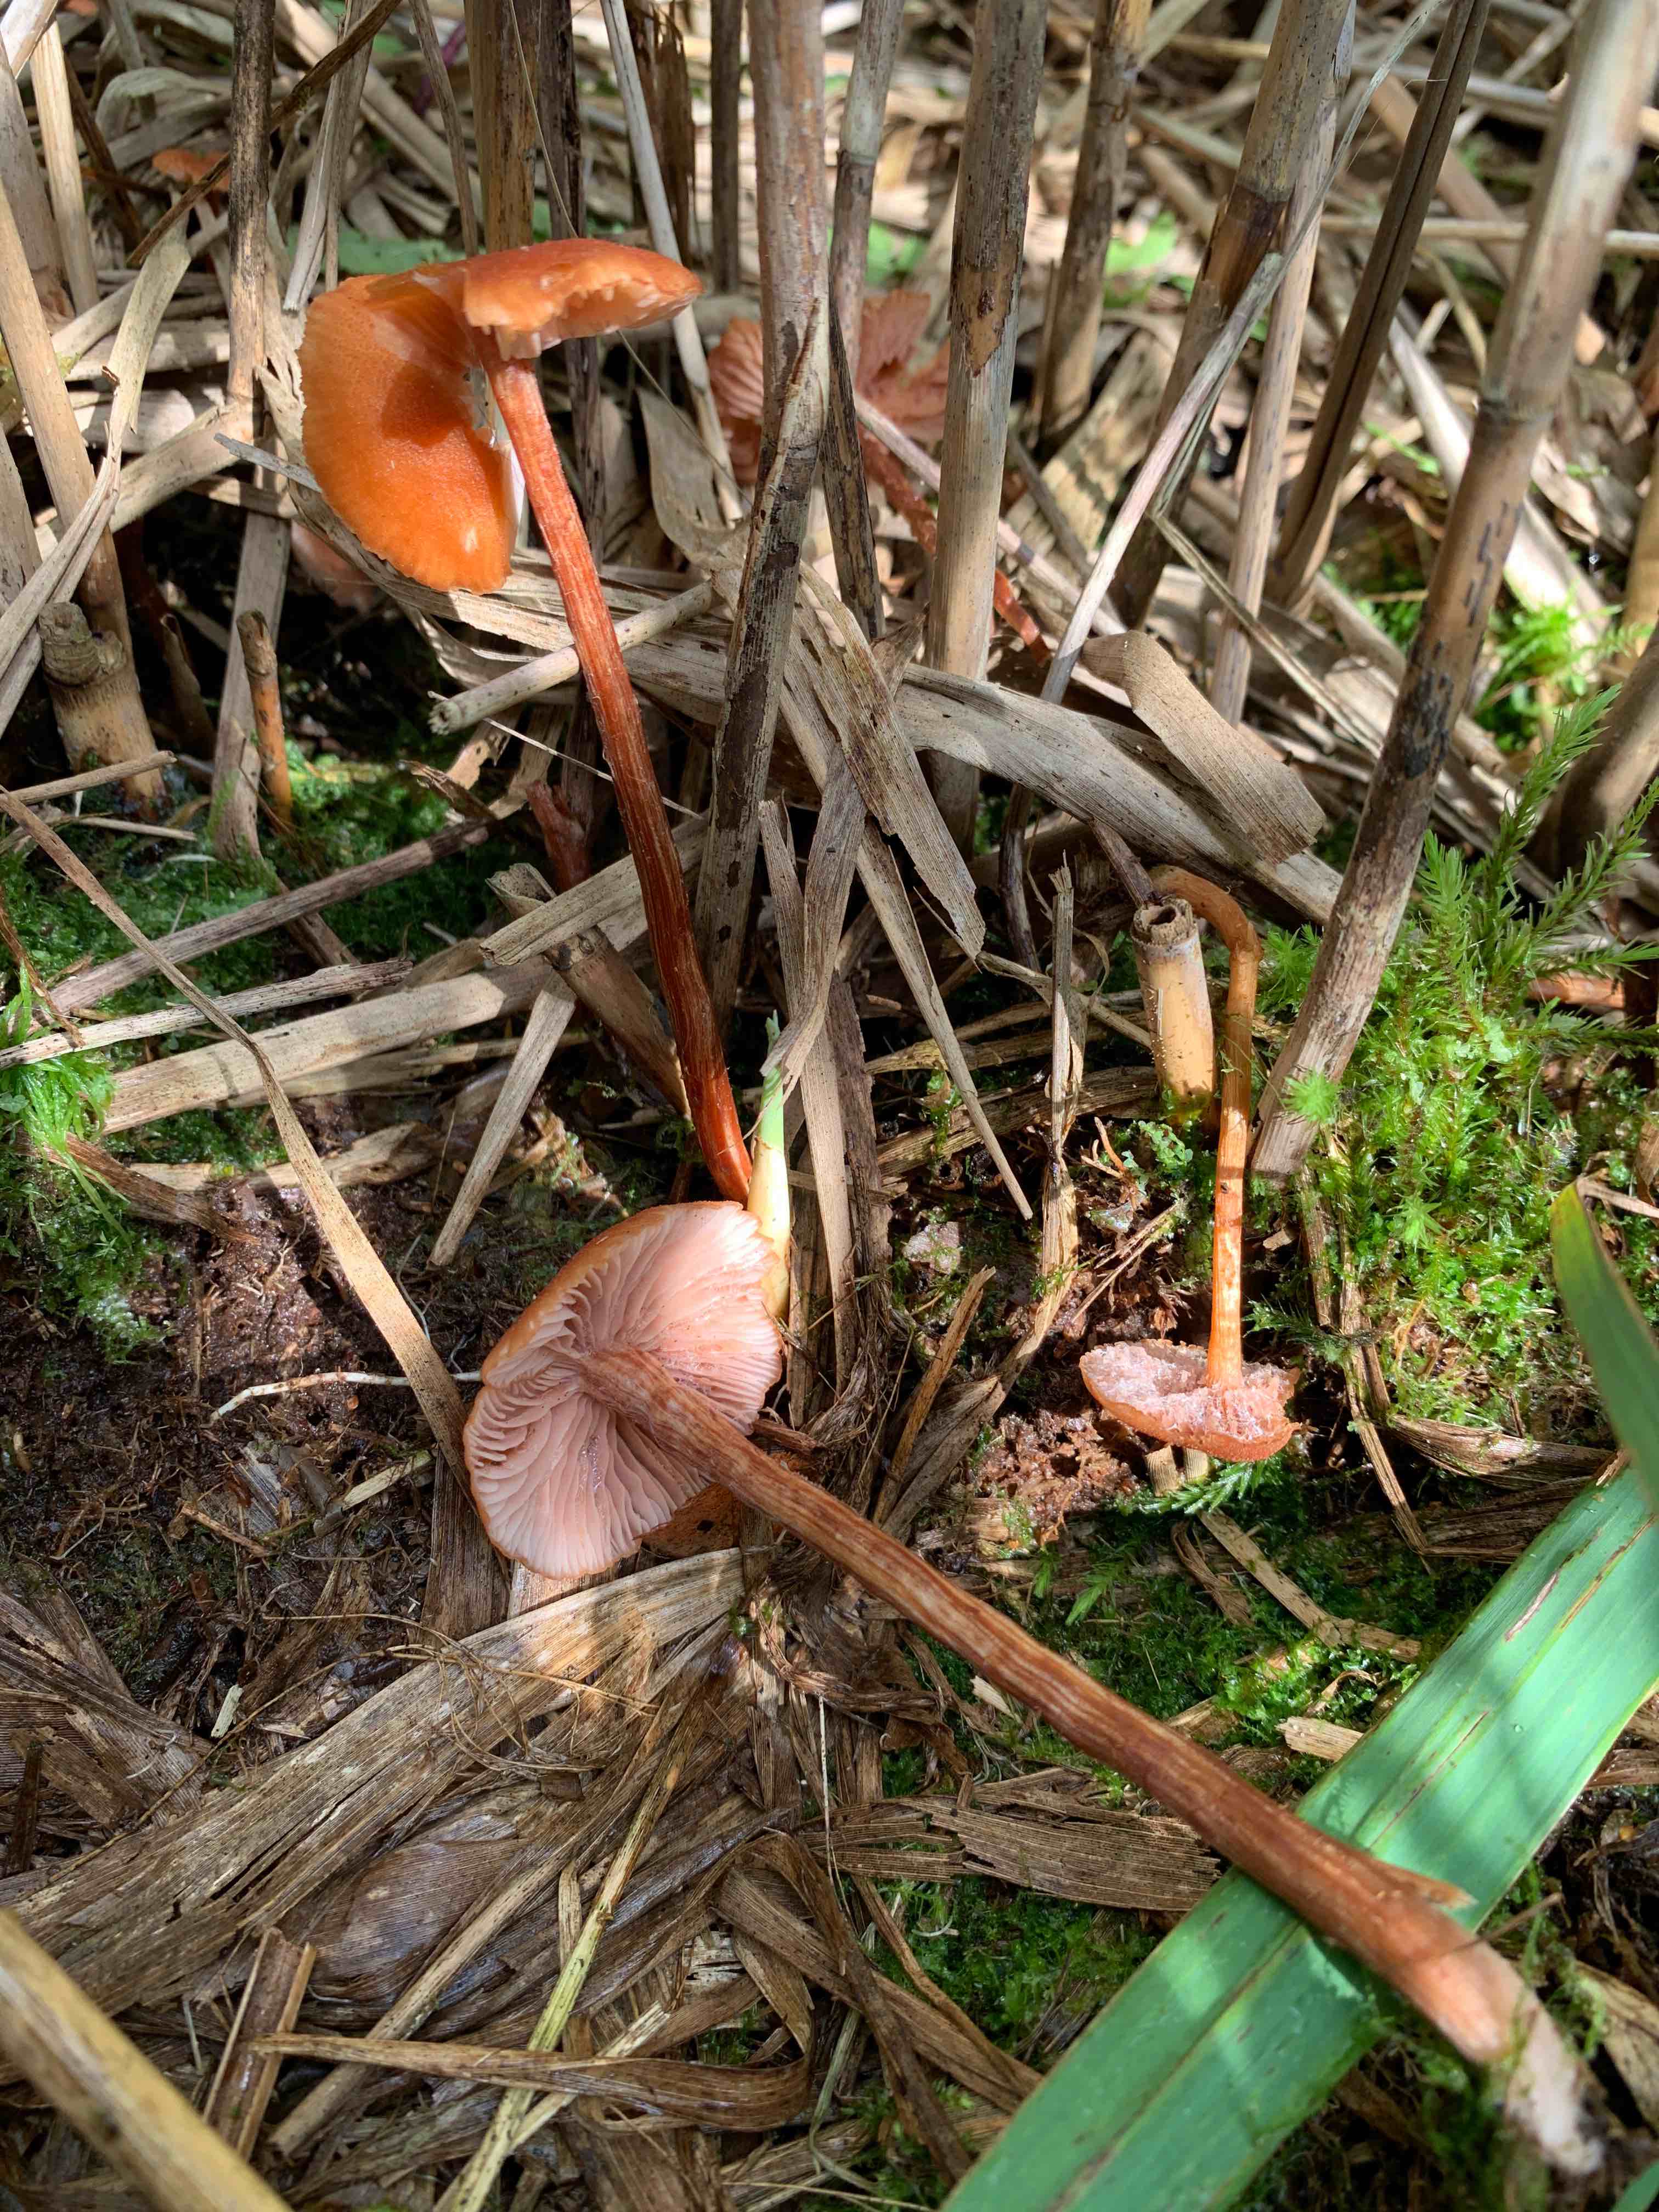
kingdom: Fungi
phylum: Basidiomycota
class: Agaricomycetes
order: Agaricales
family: Hydnangiaceae
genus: Laccaria
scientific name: Laccaria
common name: ametysthat
